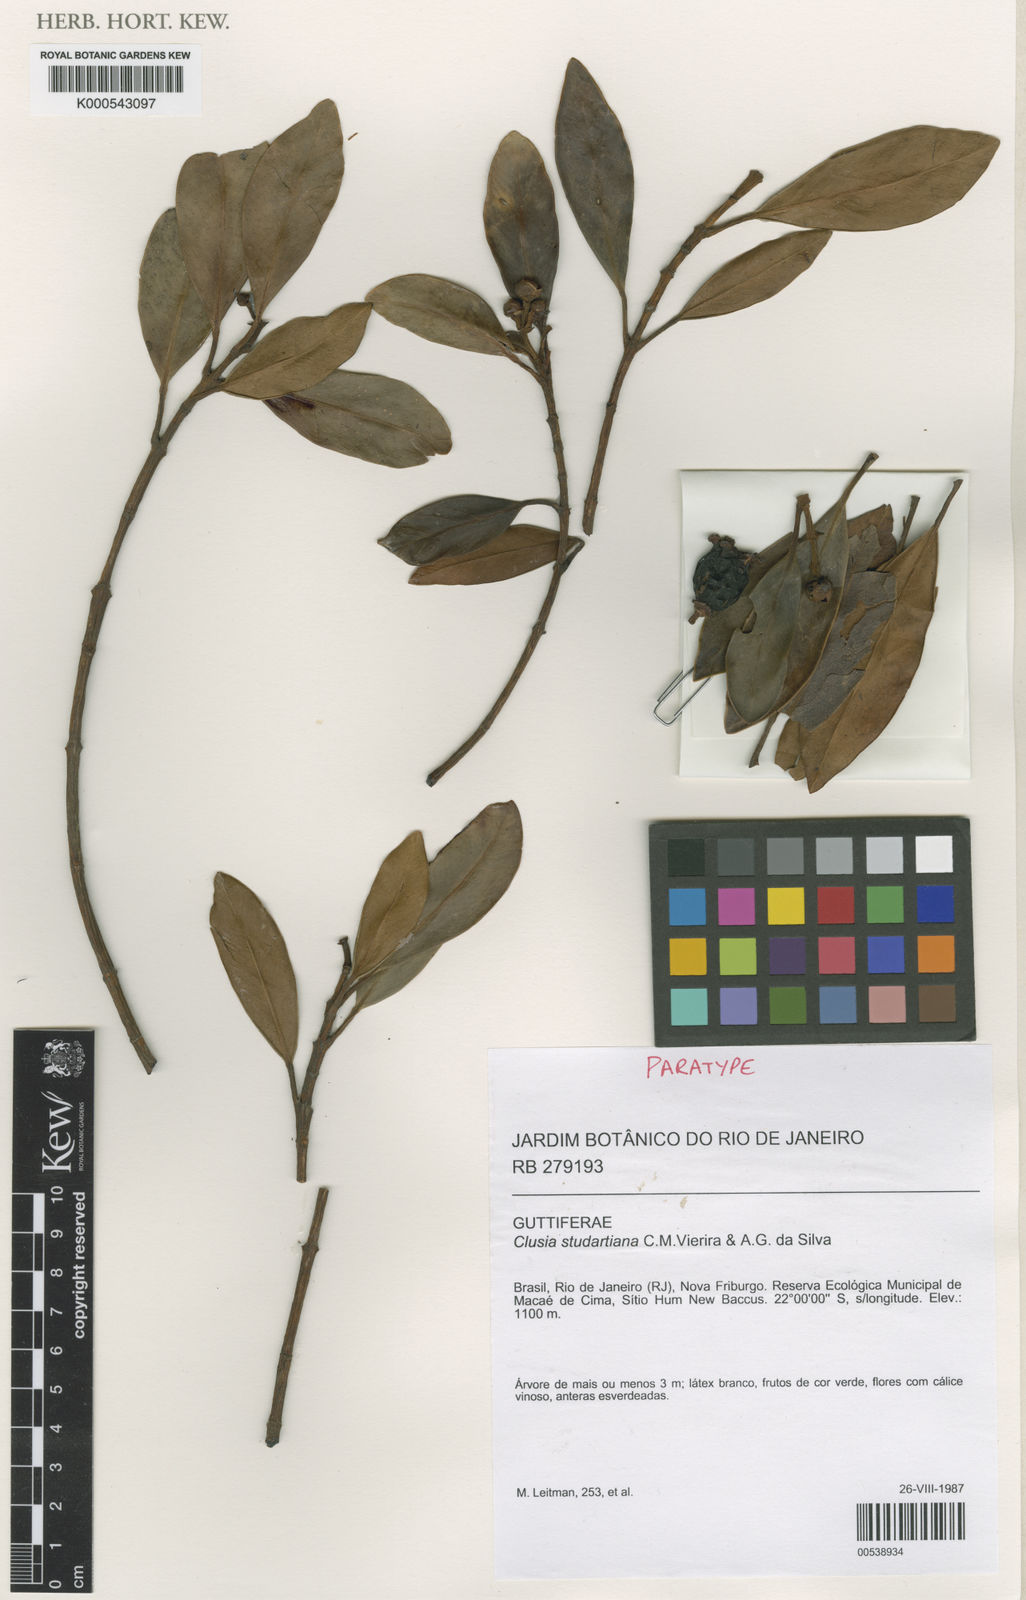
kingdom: Plantae
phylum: Tracheophyta
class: Magnoliopsida
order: Malpighiales
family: Clusiaceae
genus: Clusia
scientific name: Clusia studartiana
